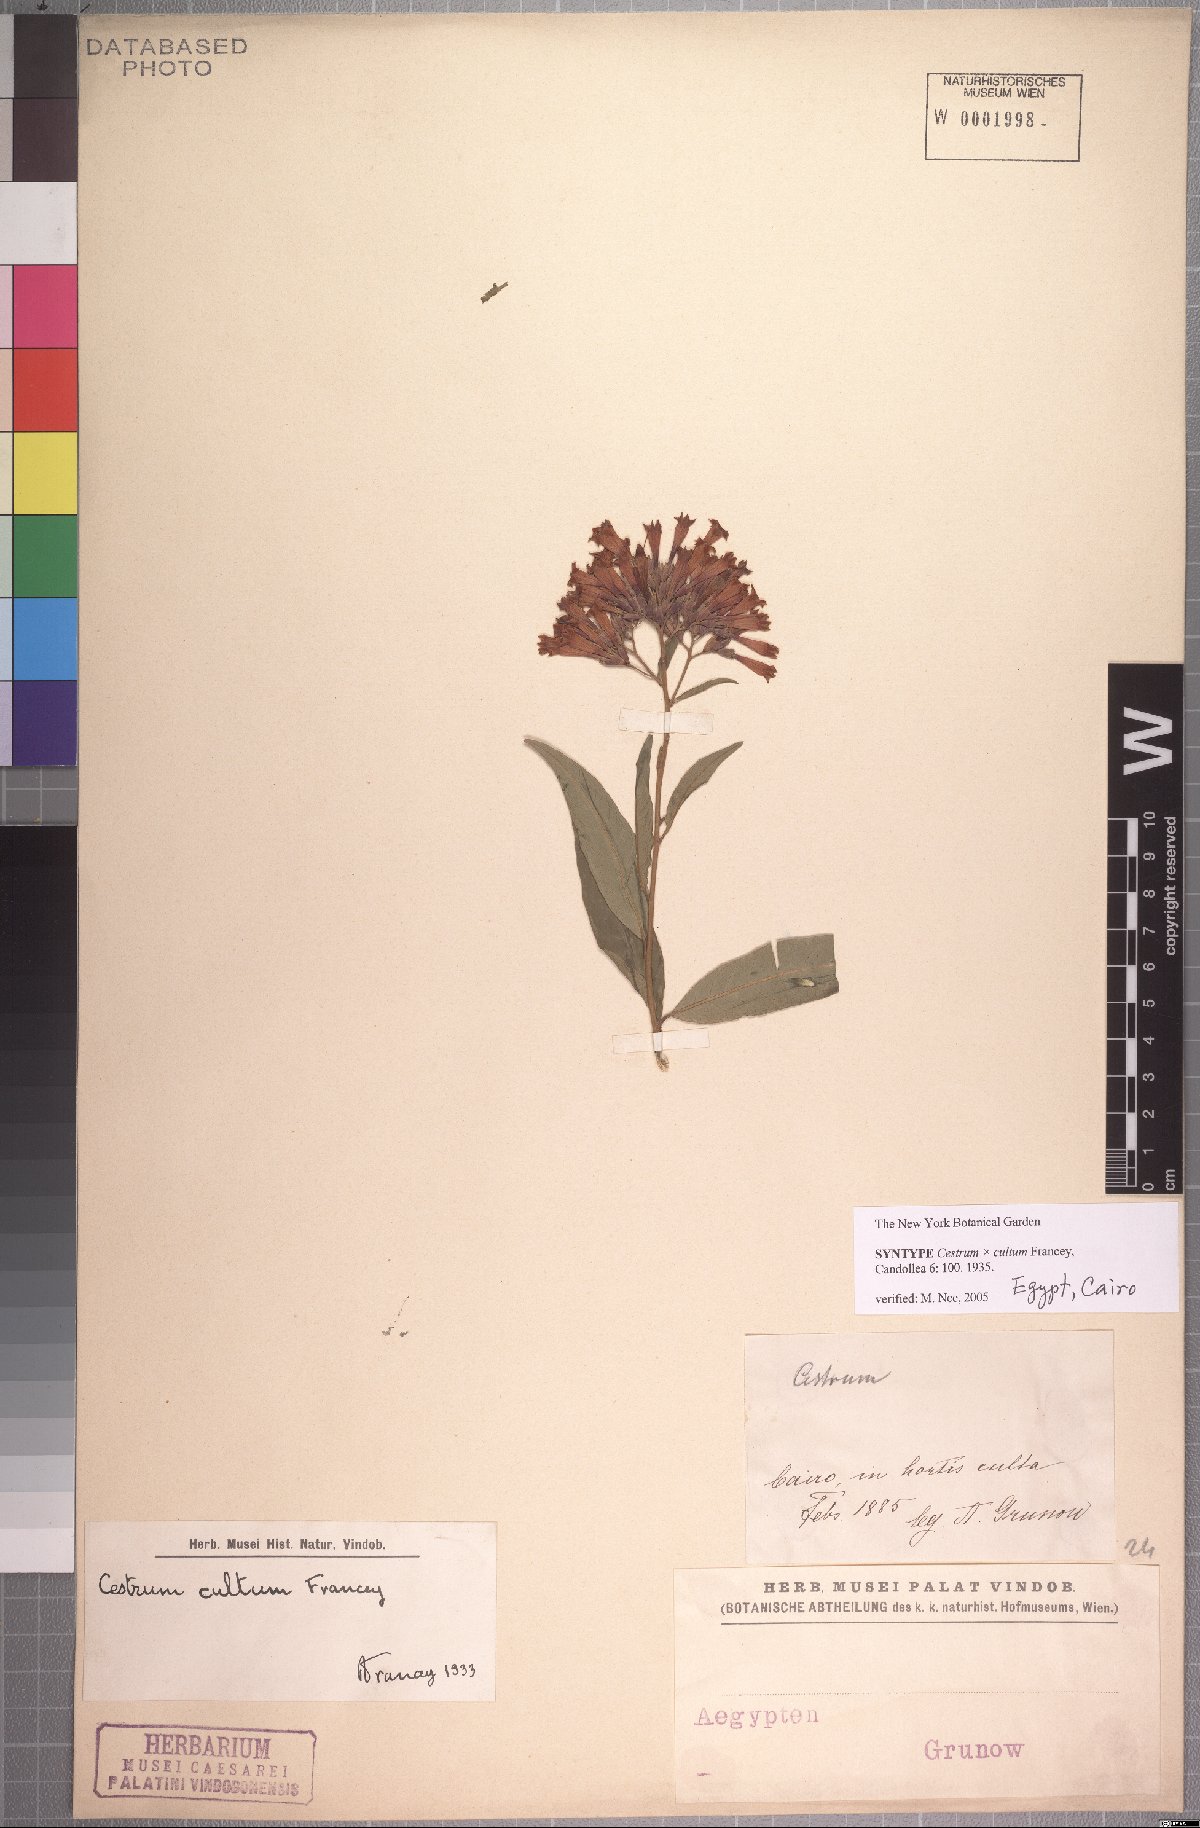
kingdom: Plantae
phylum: Tracheophyta
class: Magnoliopsida
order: Solanales
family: Solanaceae
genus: Cestrum
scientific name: Cestrum cultum
